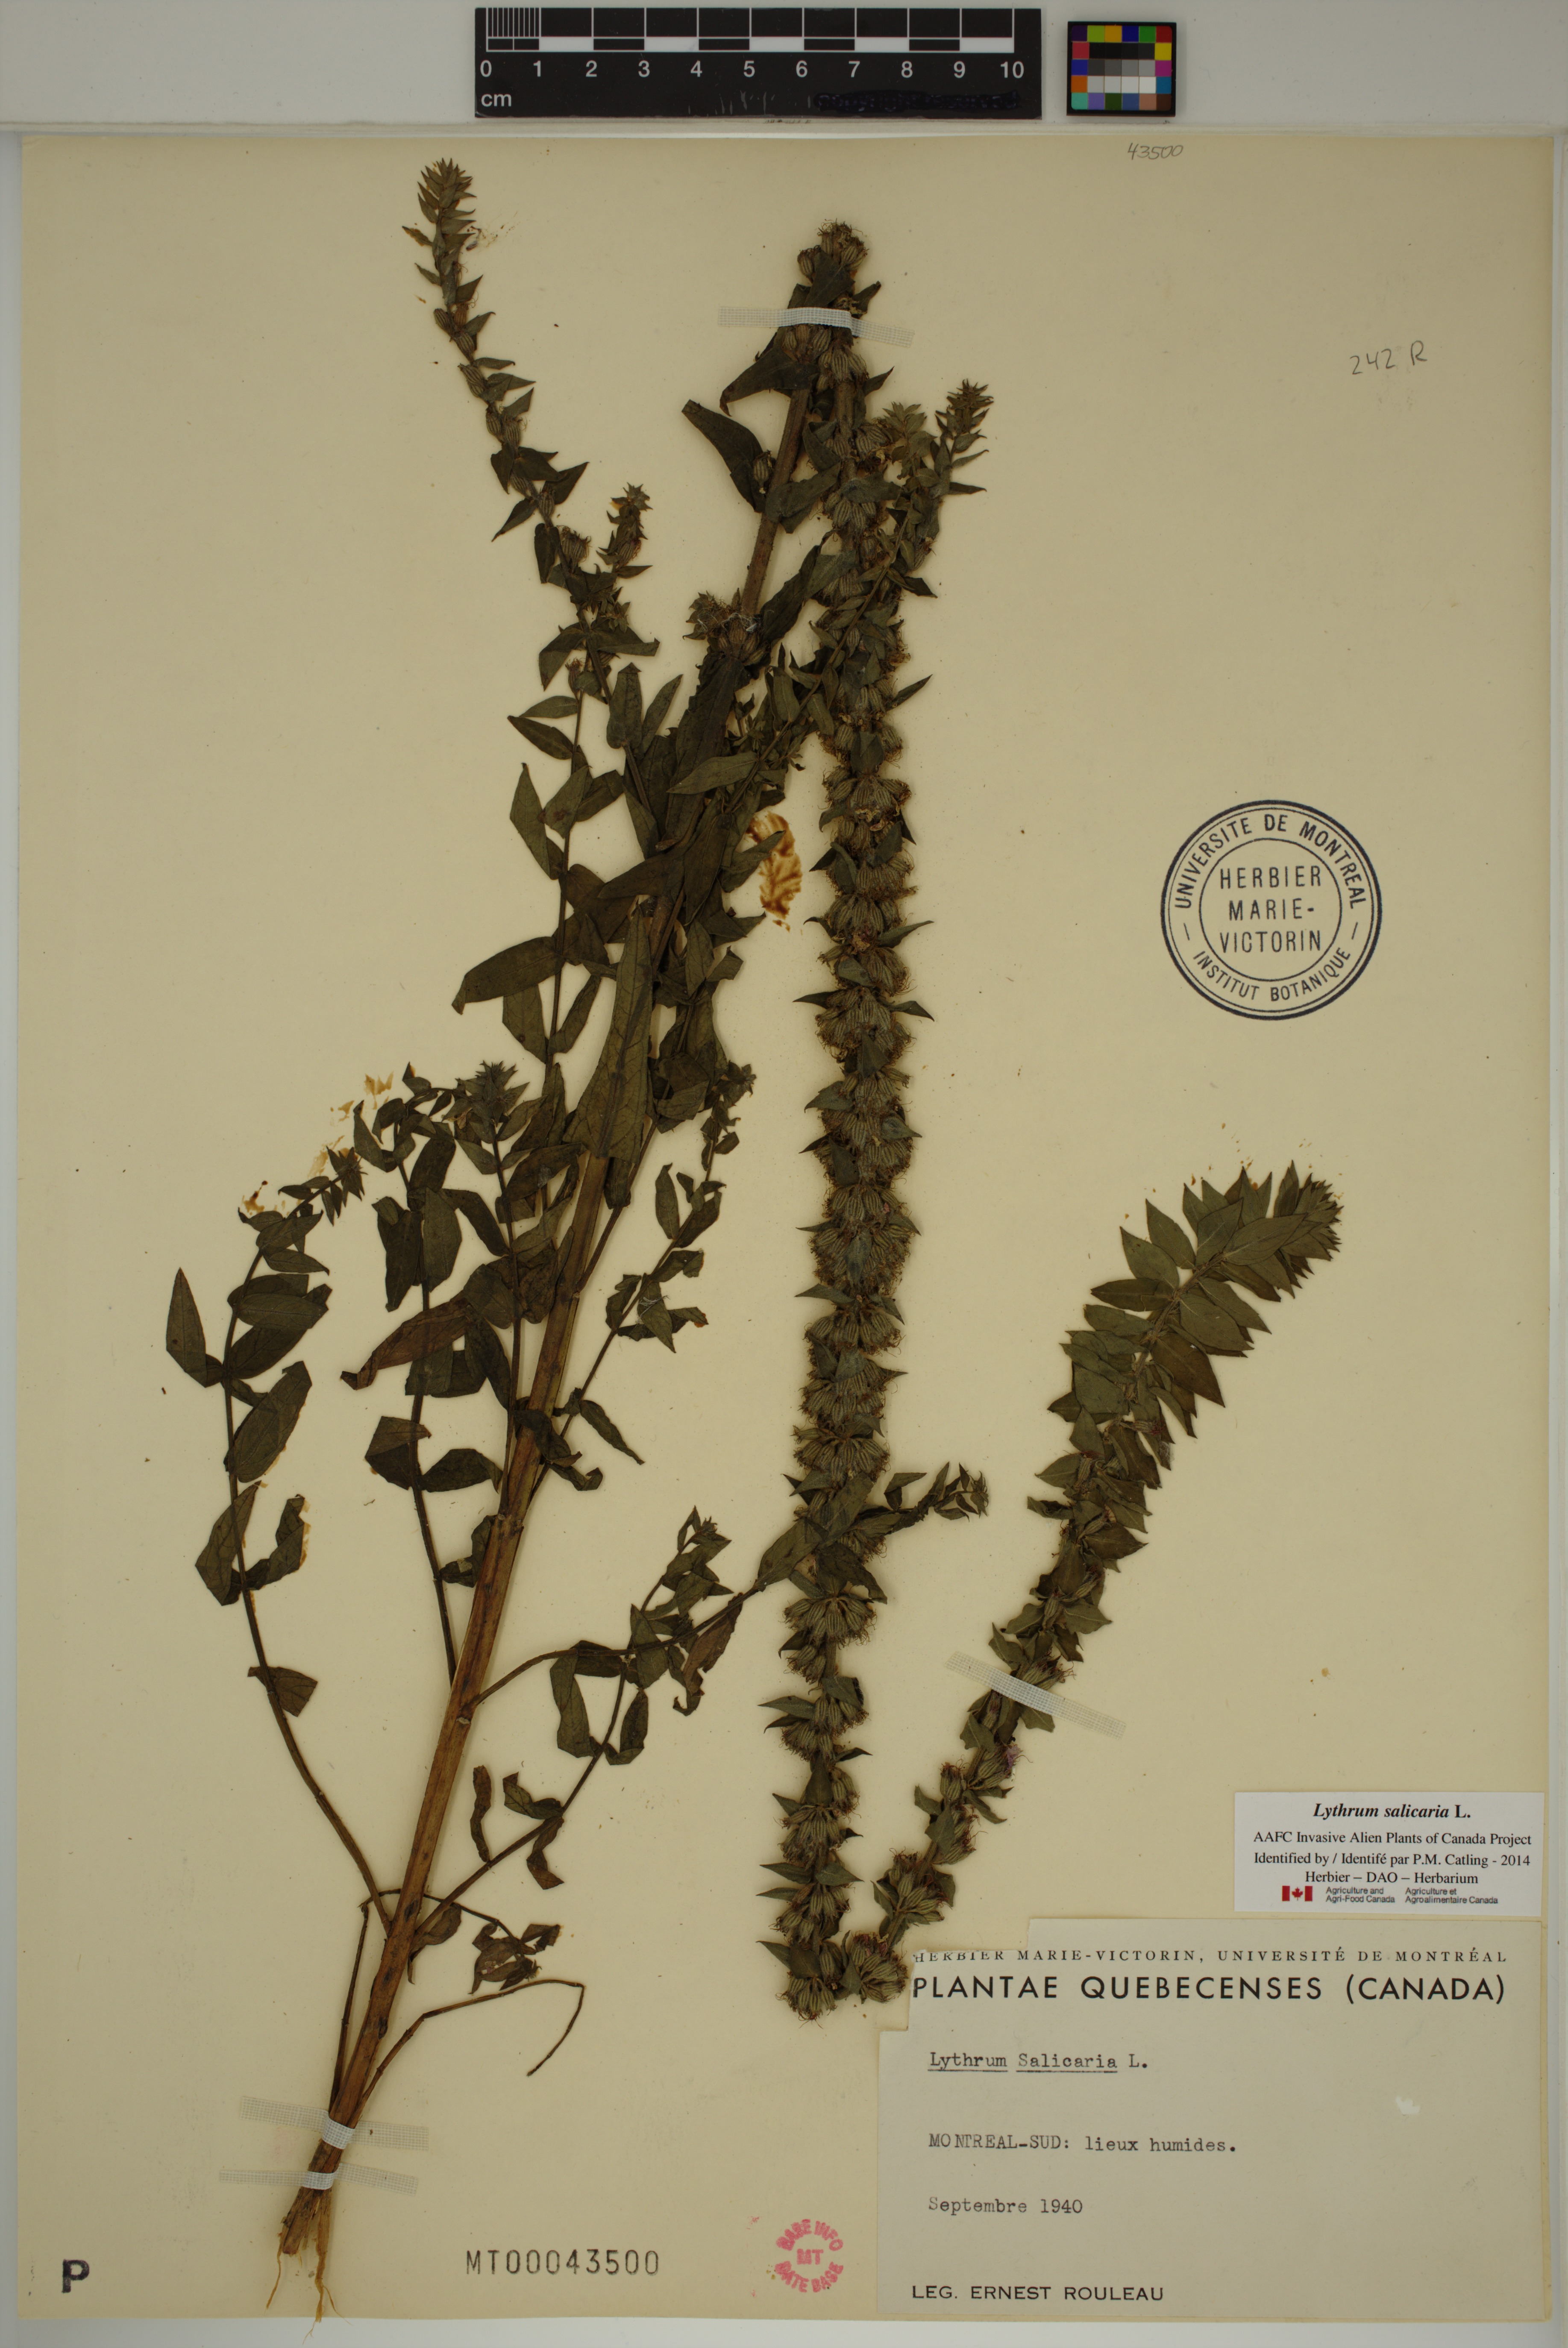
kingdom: Plantae
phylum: Tracheophyta
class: Magnoliopsida
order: Myrtales
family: Lythraceae
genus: Lythrum
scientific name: Lythrum salicaria
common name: Purple loosestrife
